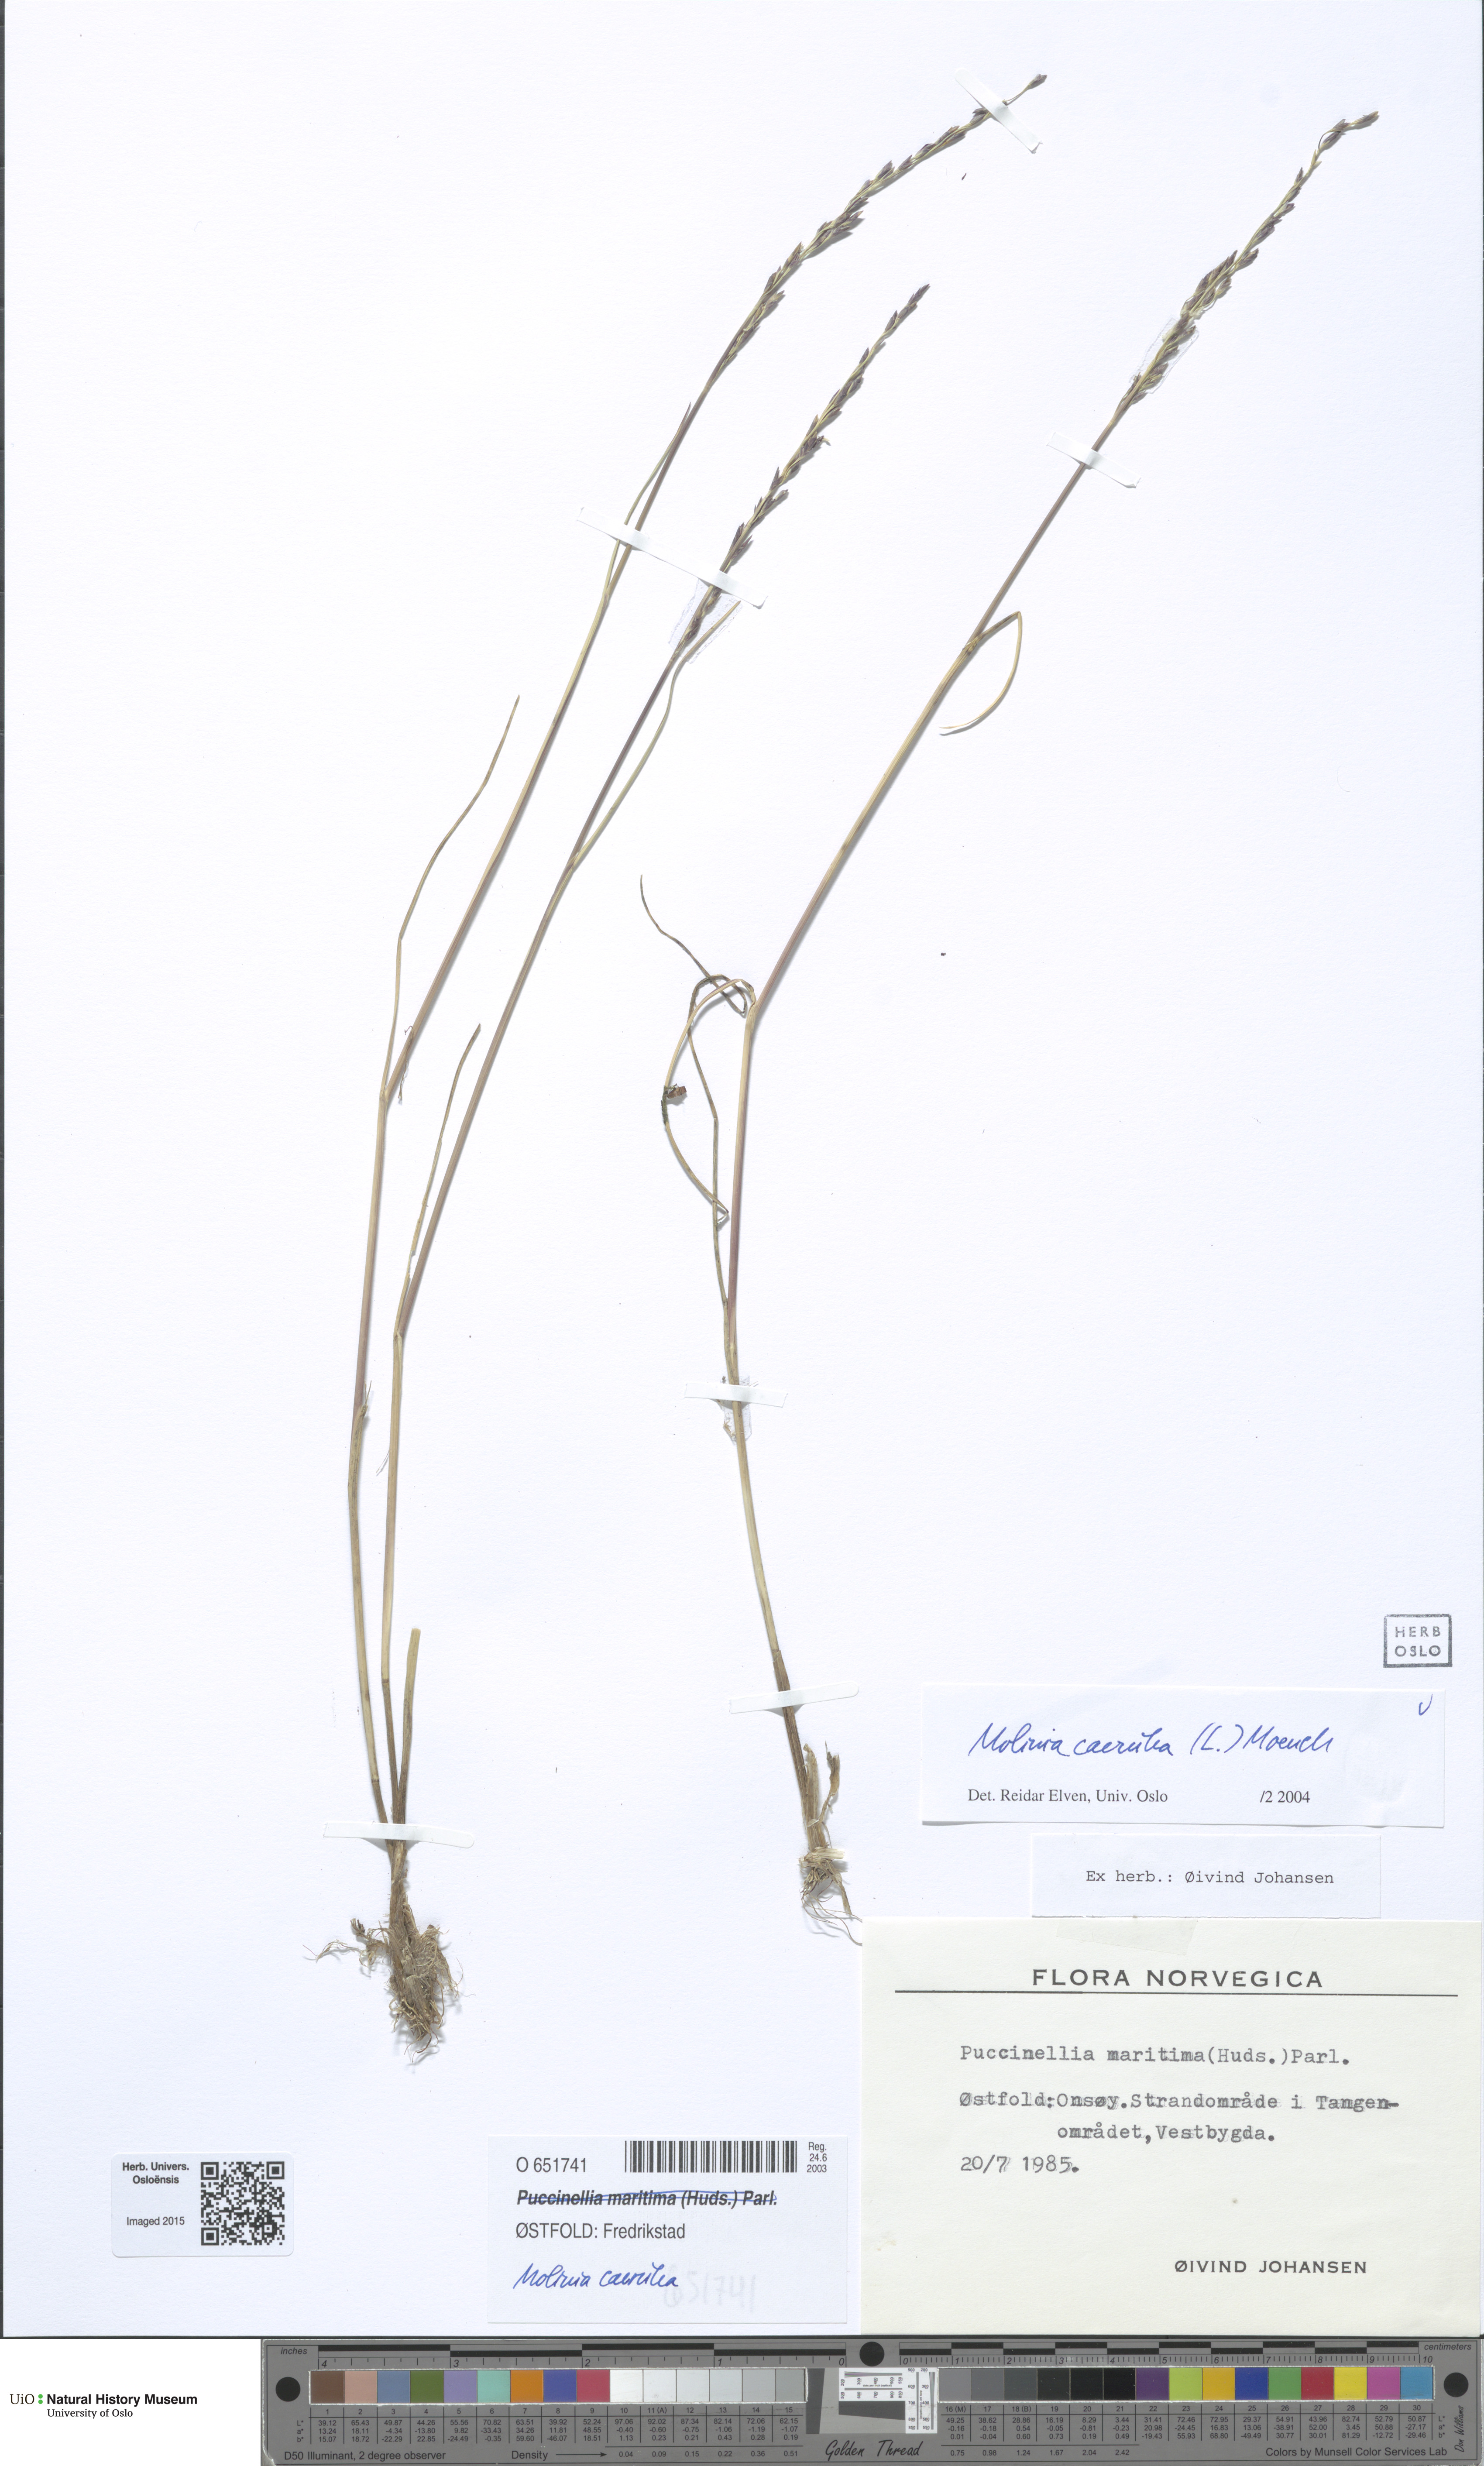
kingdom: Plantae
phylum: Tracheophyta
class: Liliopsida
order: Poales
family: Poaceae
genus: Molinia
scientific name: Molinia caerulea
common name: Purple moor-grass
